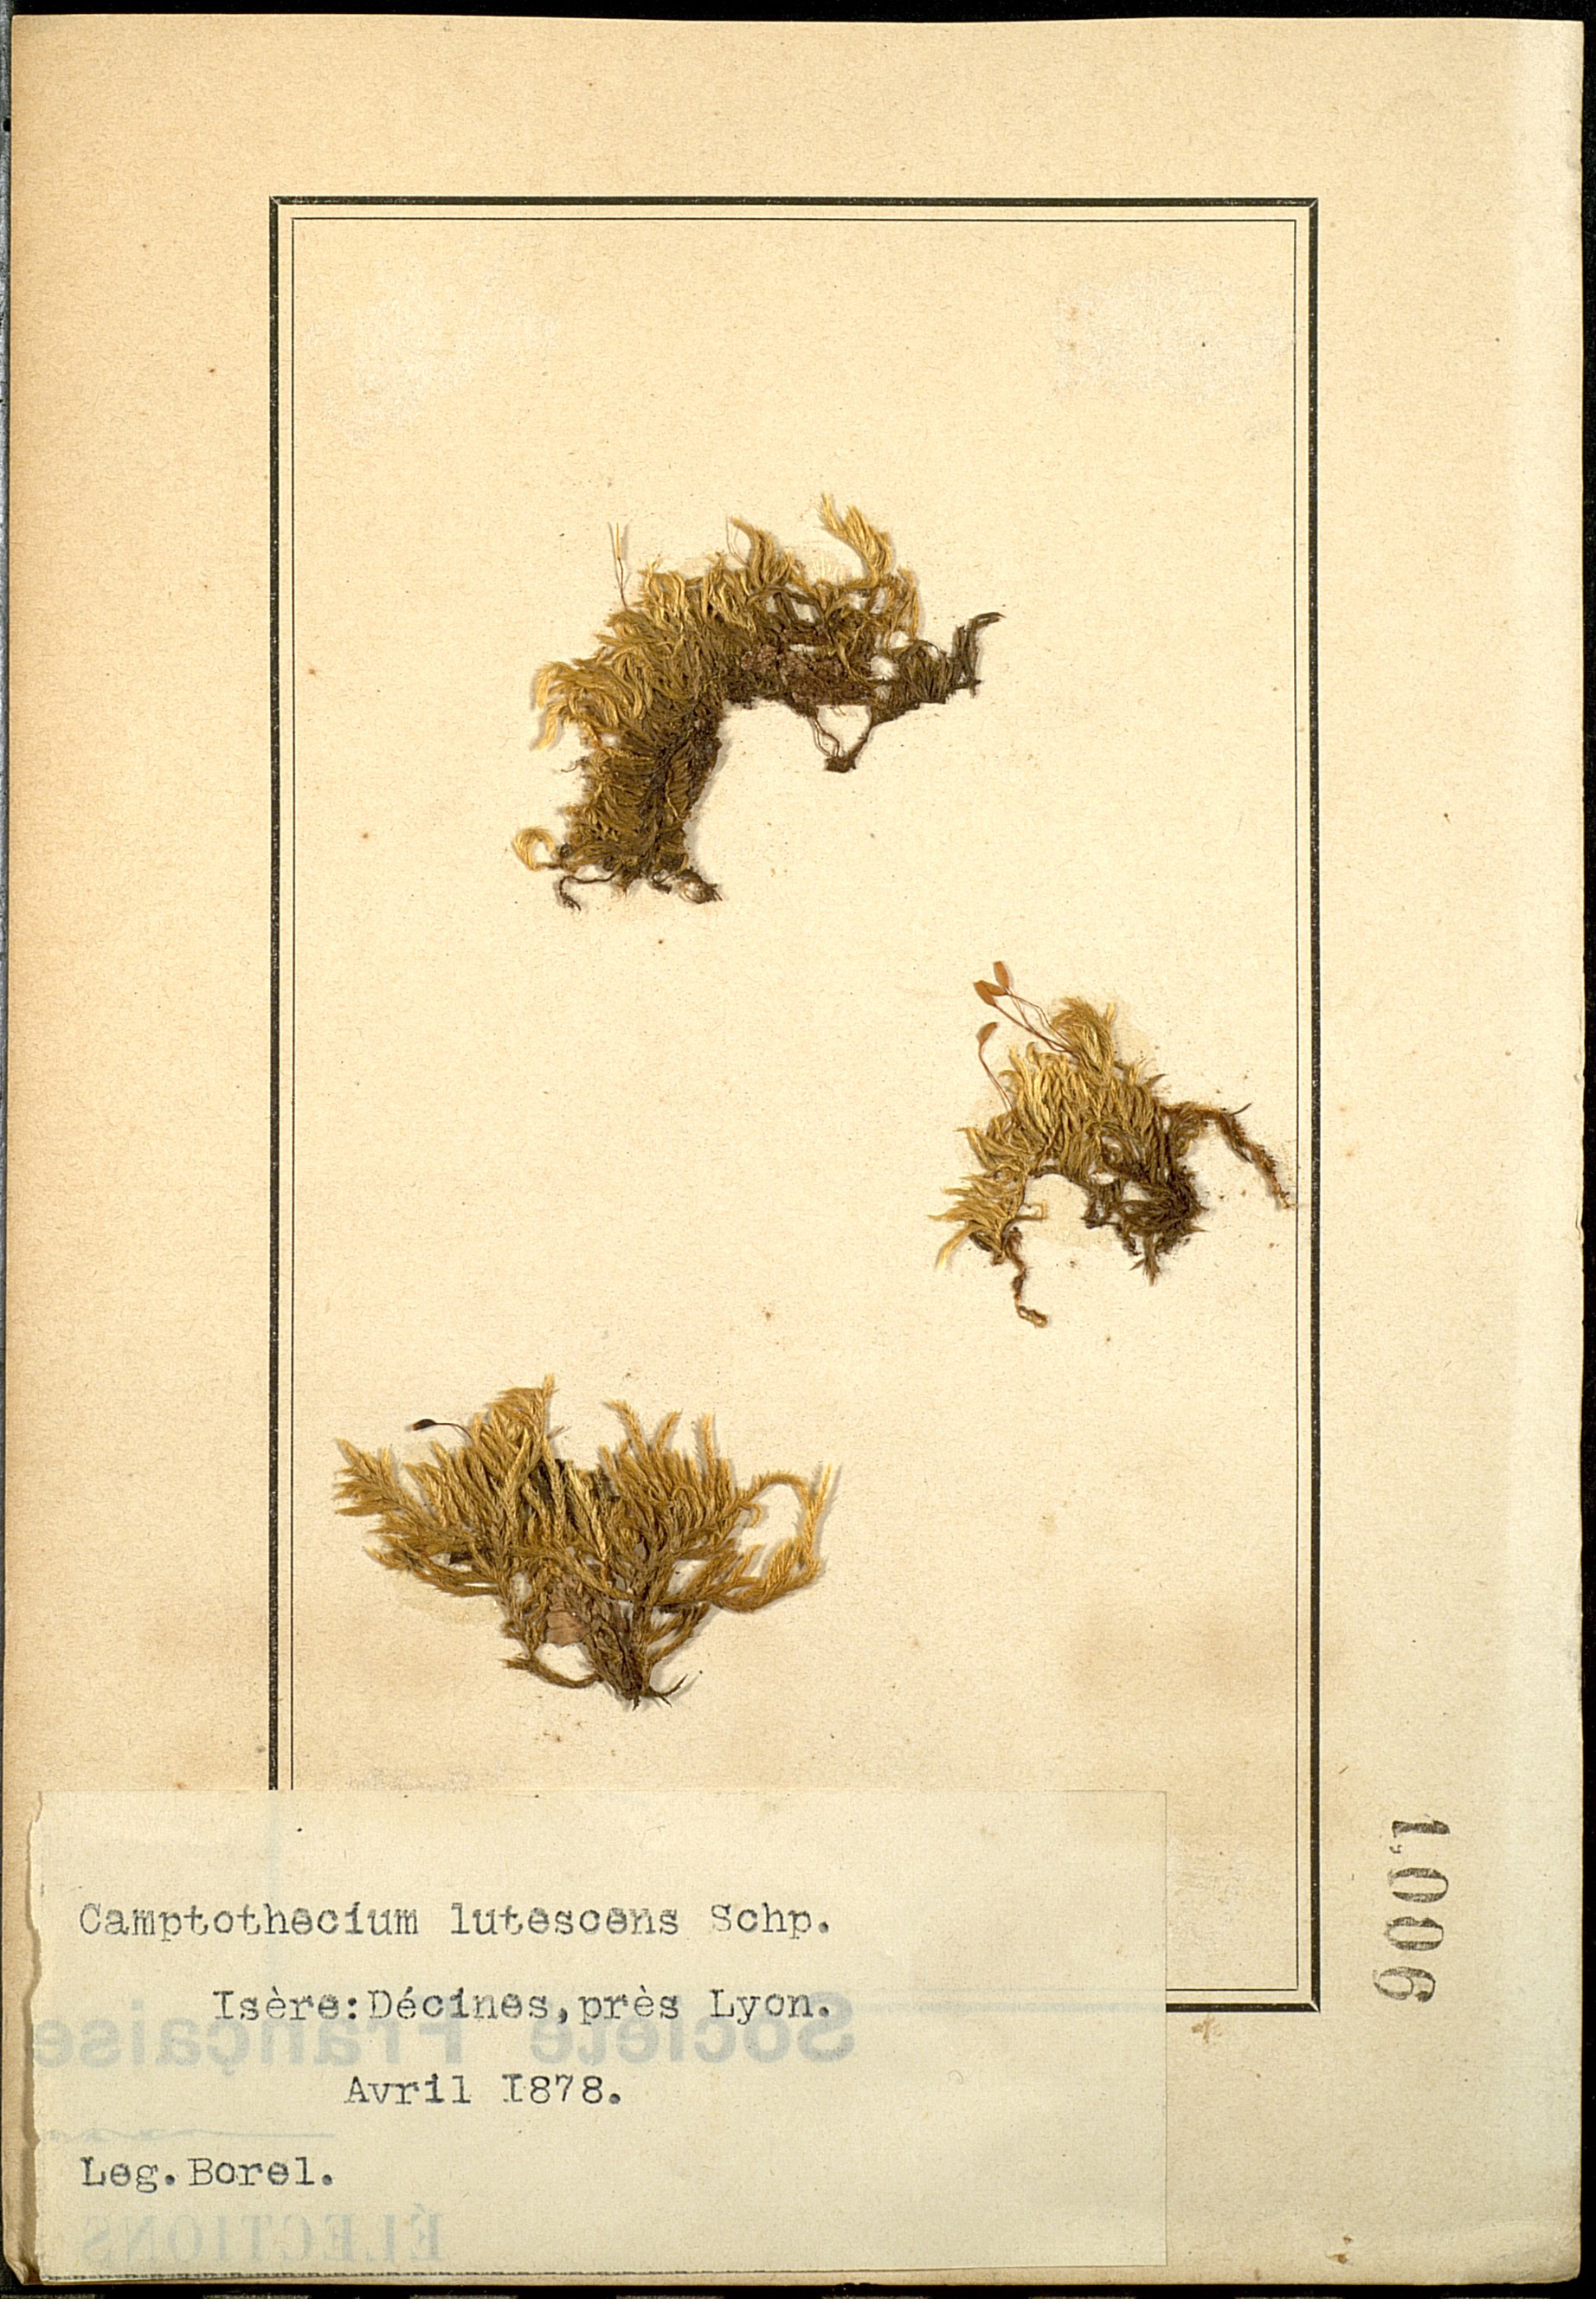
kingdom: Plantae
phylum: Bryophyta
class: Bryopsida
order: Hypnales
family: Brachytheciaceae
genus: Homalothecium
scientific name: Homalothecium lutescens
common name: Yellow feather-moss
